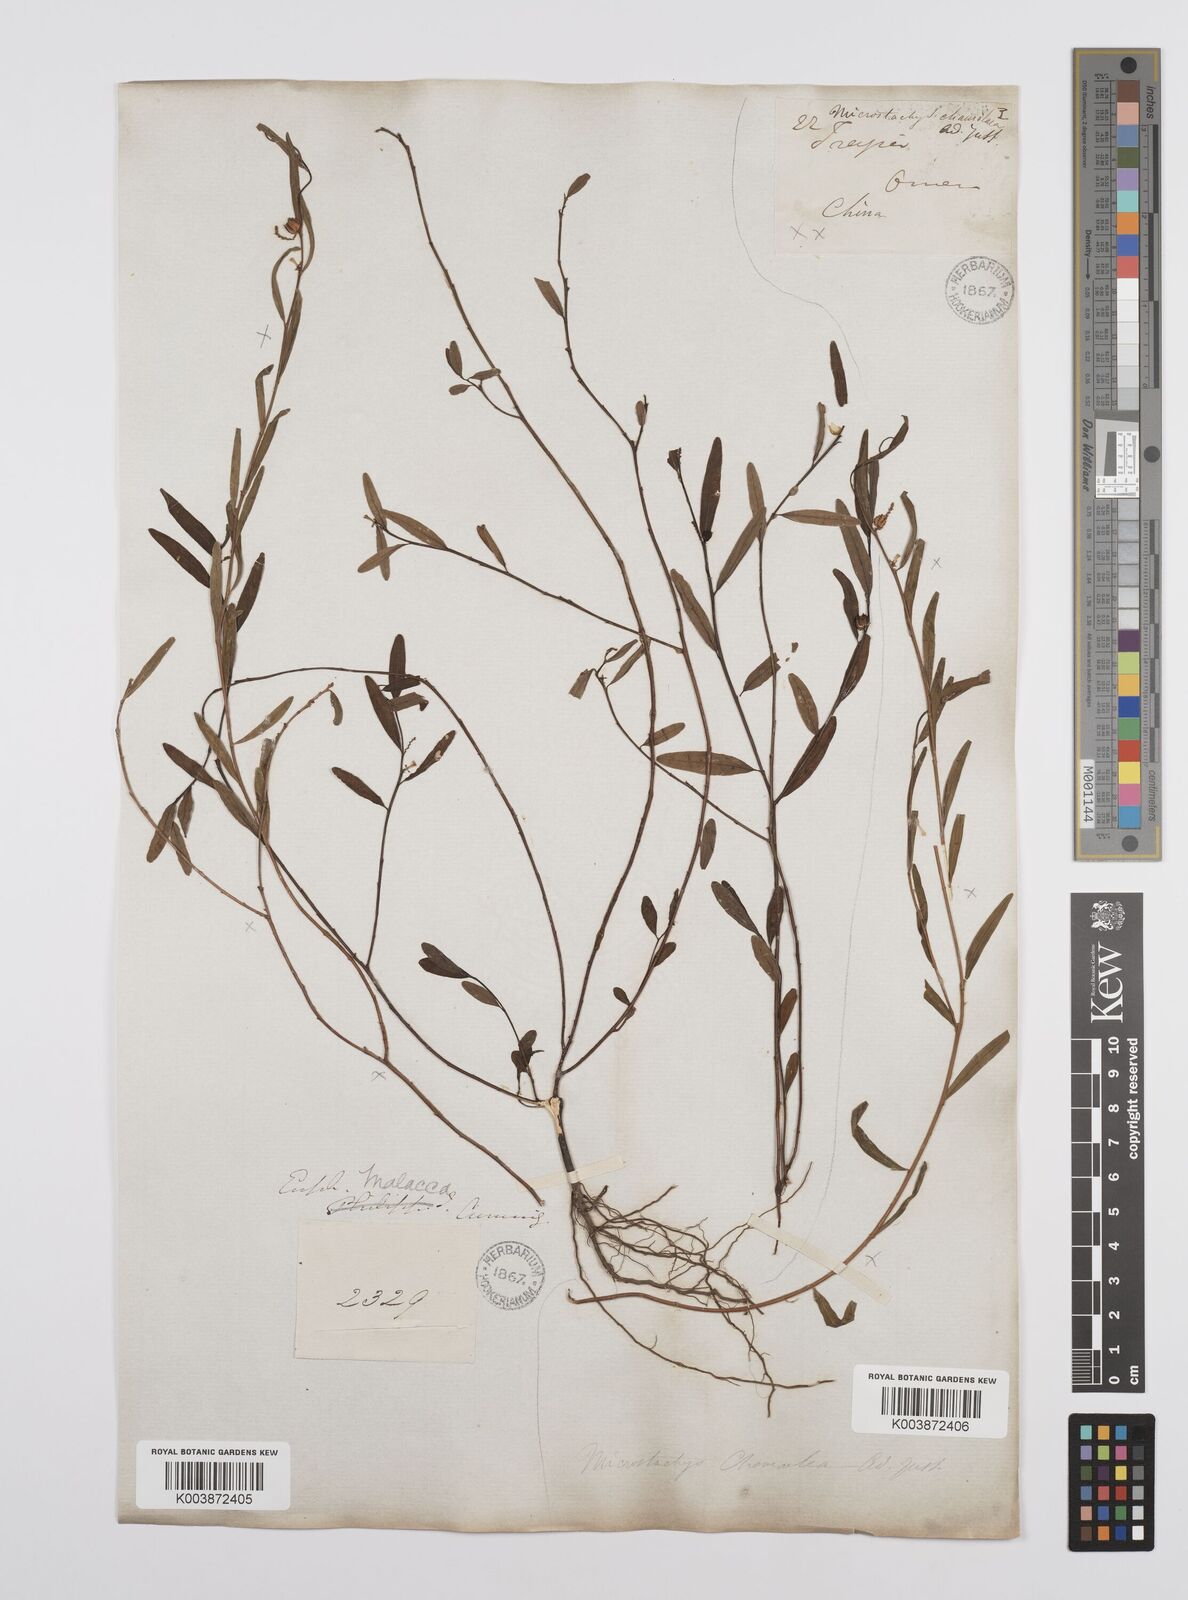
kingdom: Plantae
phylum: Tracheophyta
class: Magnoliopsida
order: Malpighiales
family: Euphorbiaceae
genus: Microstachys
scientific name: Microstachys chamaelea
